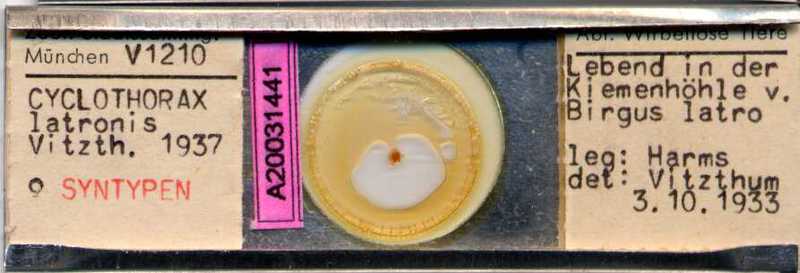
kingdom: Animalia
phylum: Arthropoda
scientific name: Arthropoda
